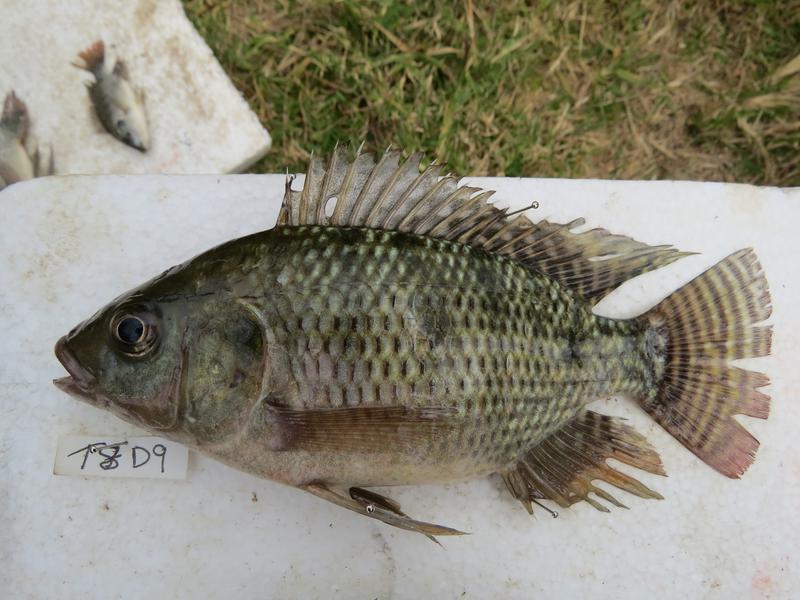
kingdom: Animalia
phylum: Chordata
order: Perciformes
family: Cichlidae
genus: Oreochromis
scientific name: Oreochromis niloticus
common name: Nile tilapia
